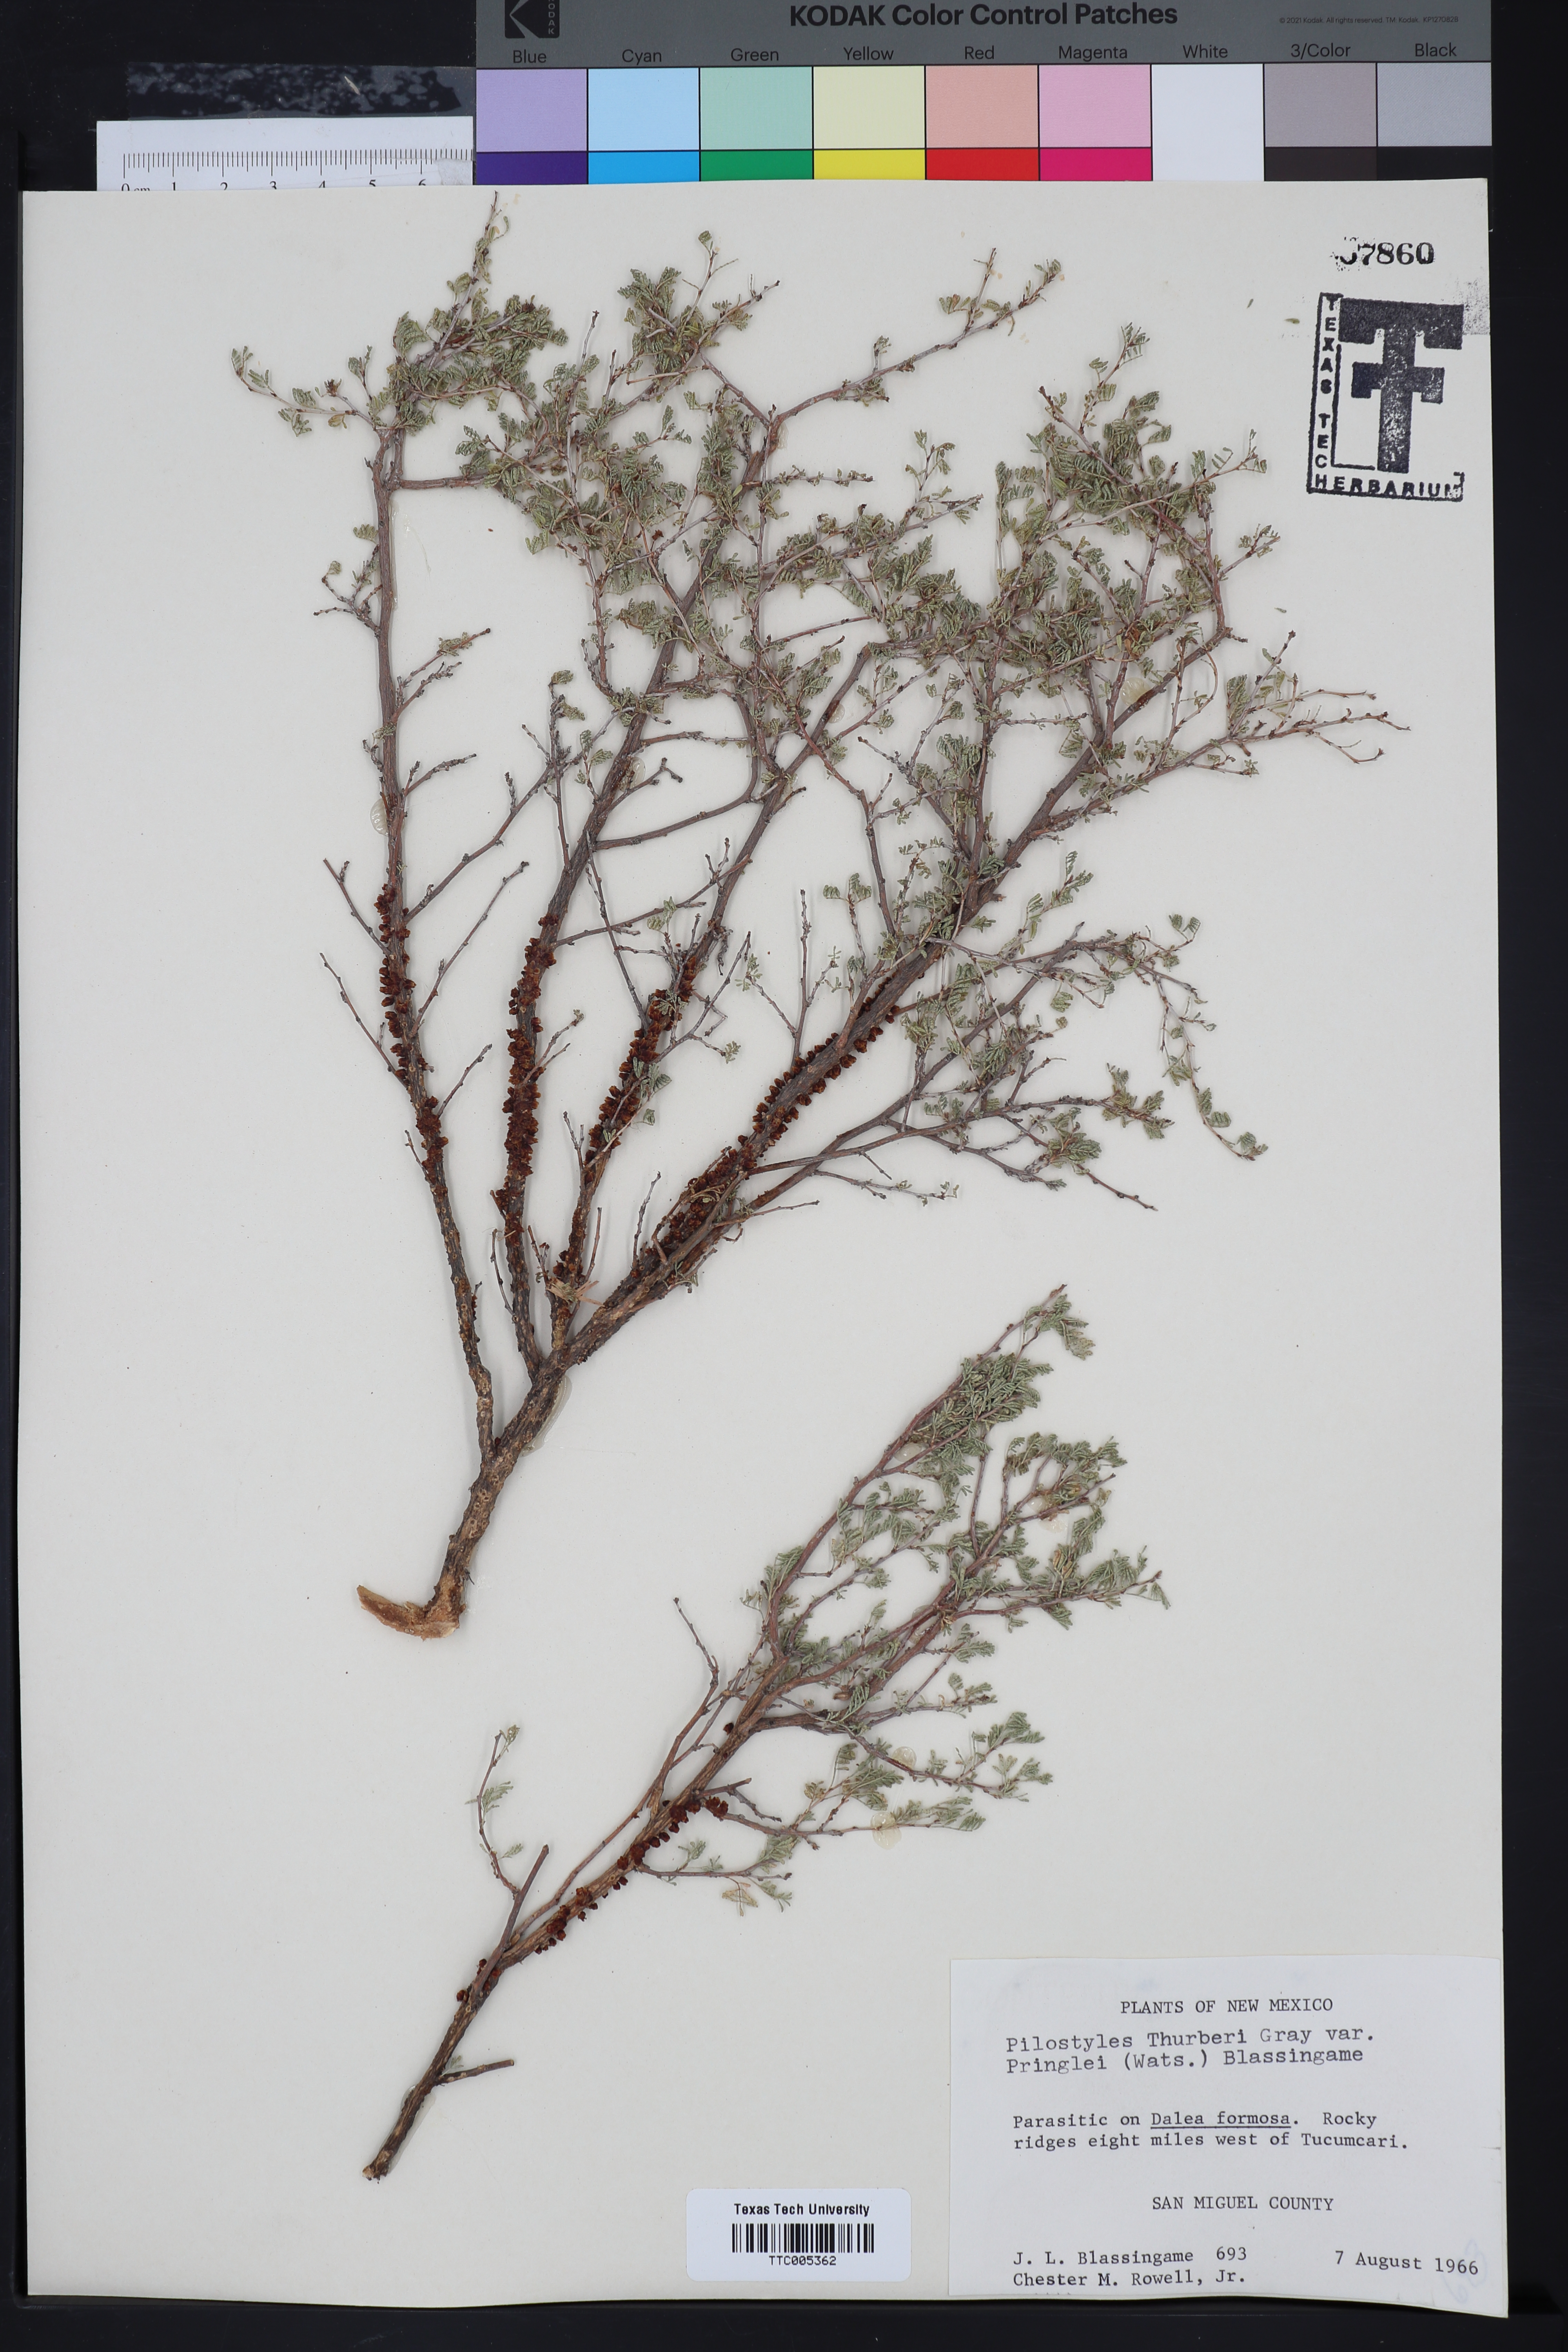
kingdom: Plantae
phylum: Tracheophyta
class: Magnoliopsida
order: Cucurbitales
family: Apodanthaceae
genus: Pilostyles
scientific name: Pilostyles thurberi
